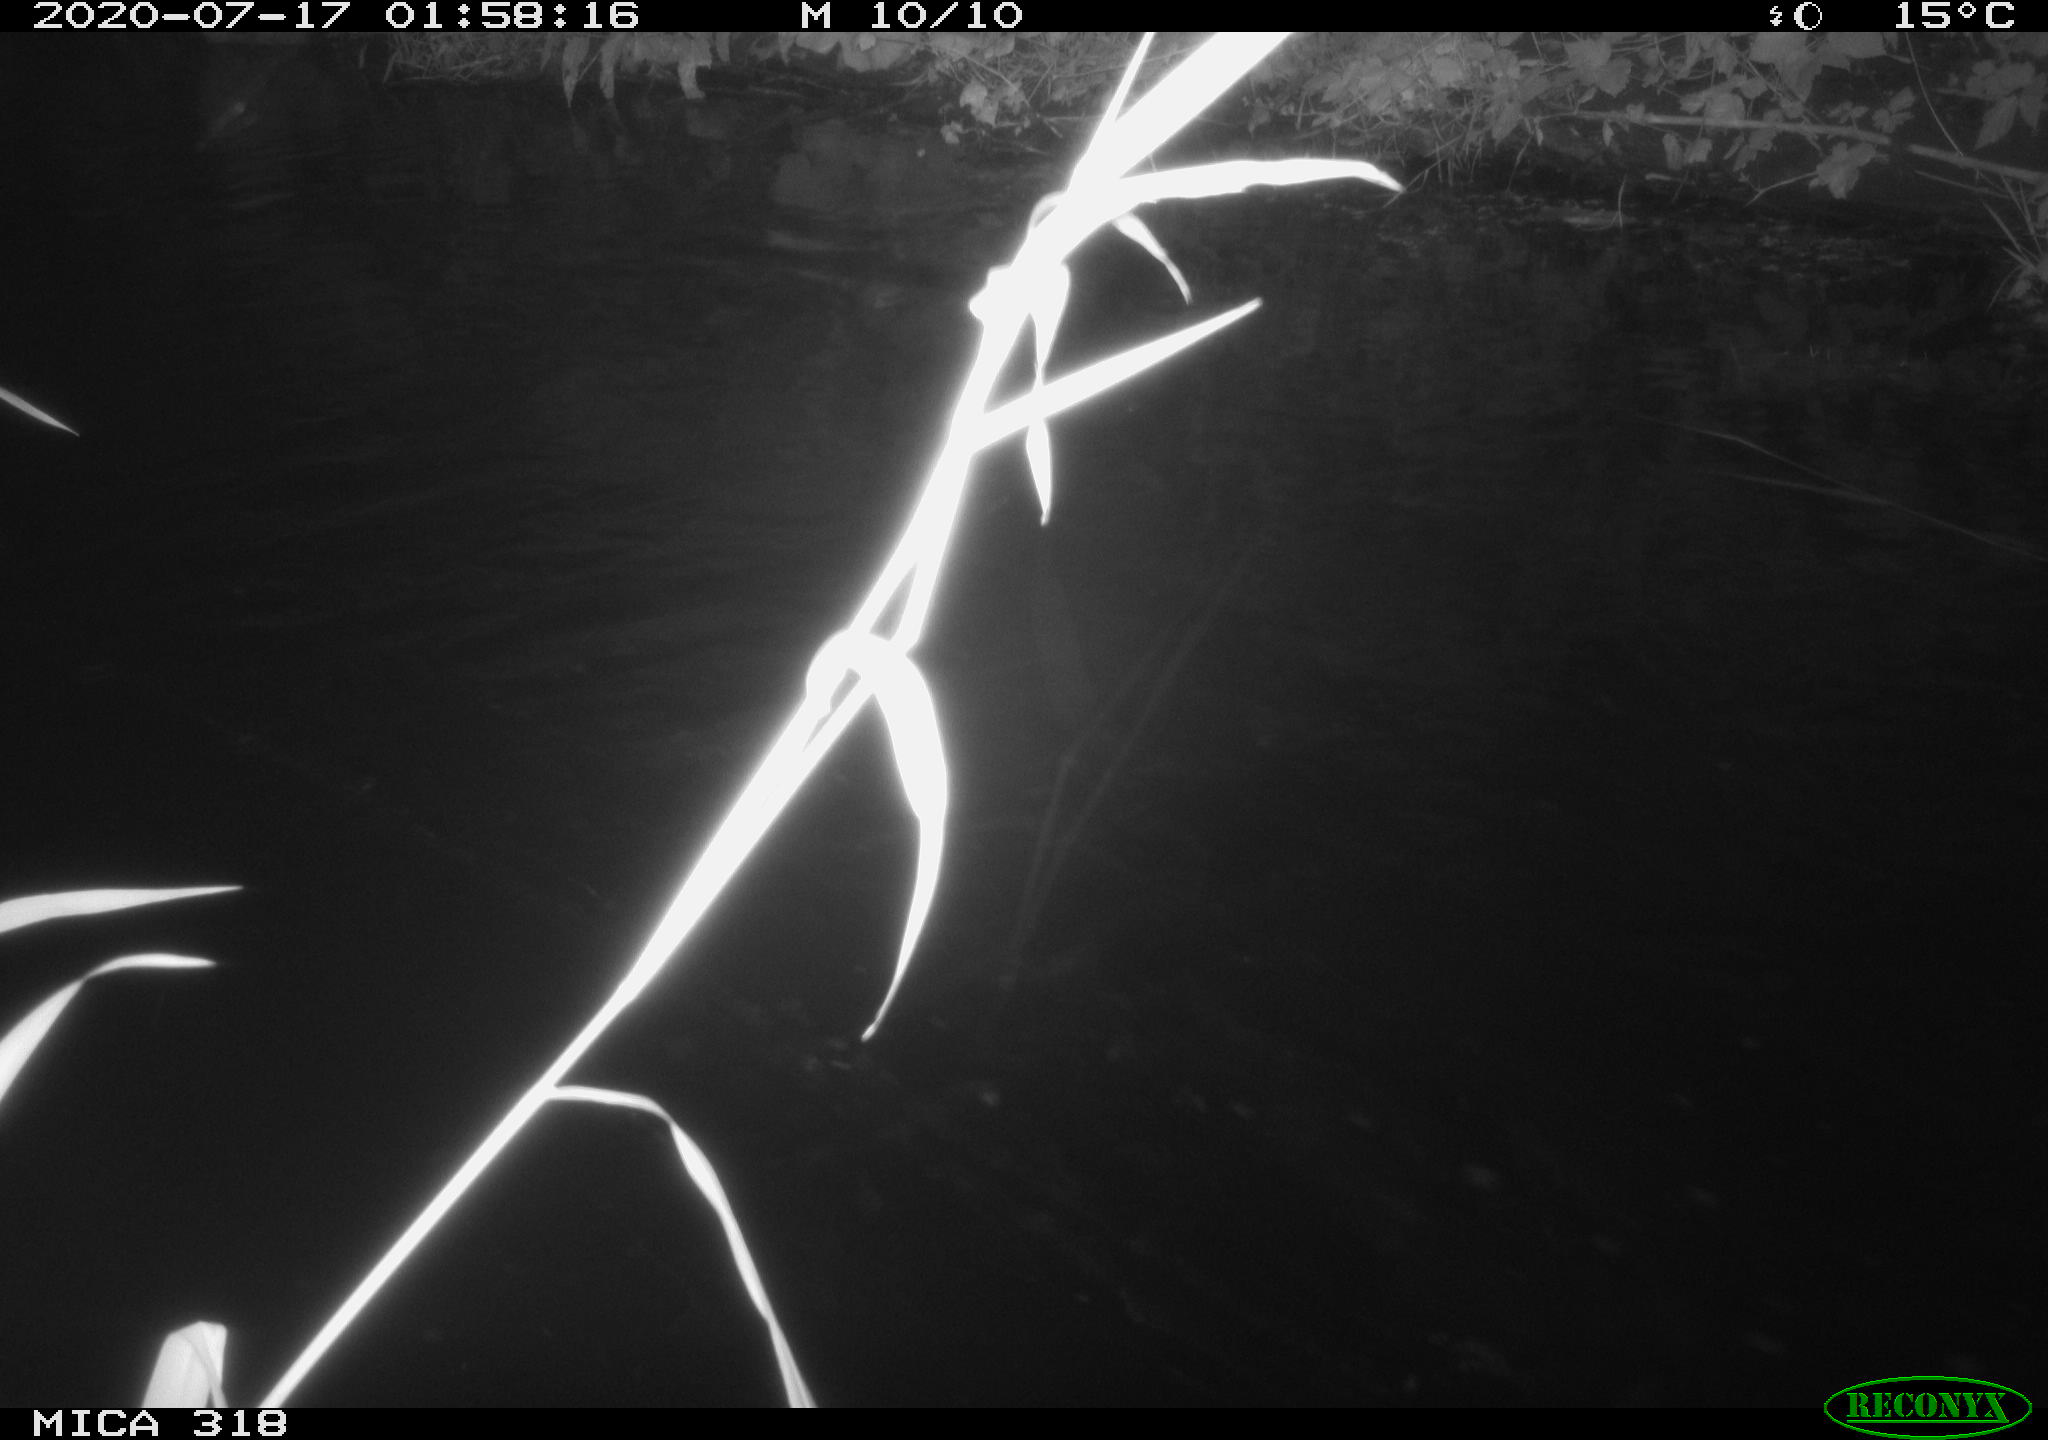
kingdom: Animalia
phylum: Chordata
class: Aves
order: Anseriformes
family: Anatidae
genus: Anas
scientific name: Anas platyrhynchos
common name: Mallard
